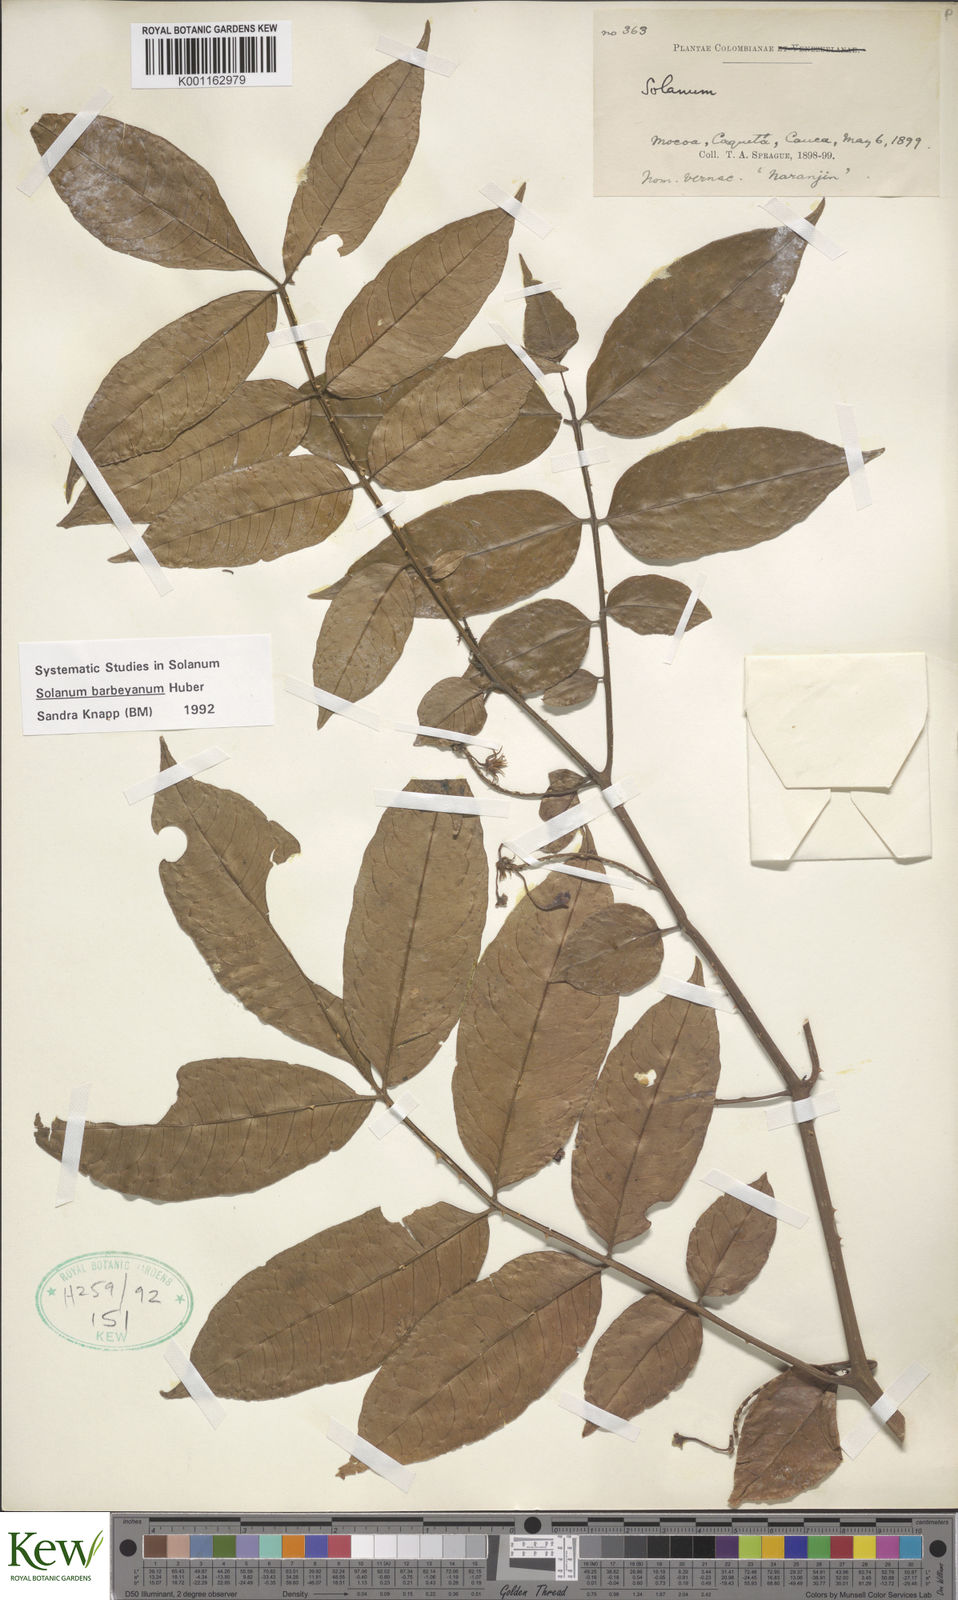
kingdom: Plantae
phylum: Tracheophyta
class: Magnoliopsida
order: Solanales
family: Solanaceae
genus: Solanum
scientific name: Solanum barbeyanum
